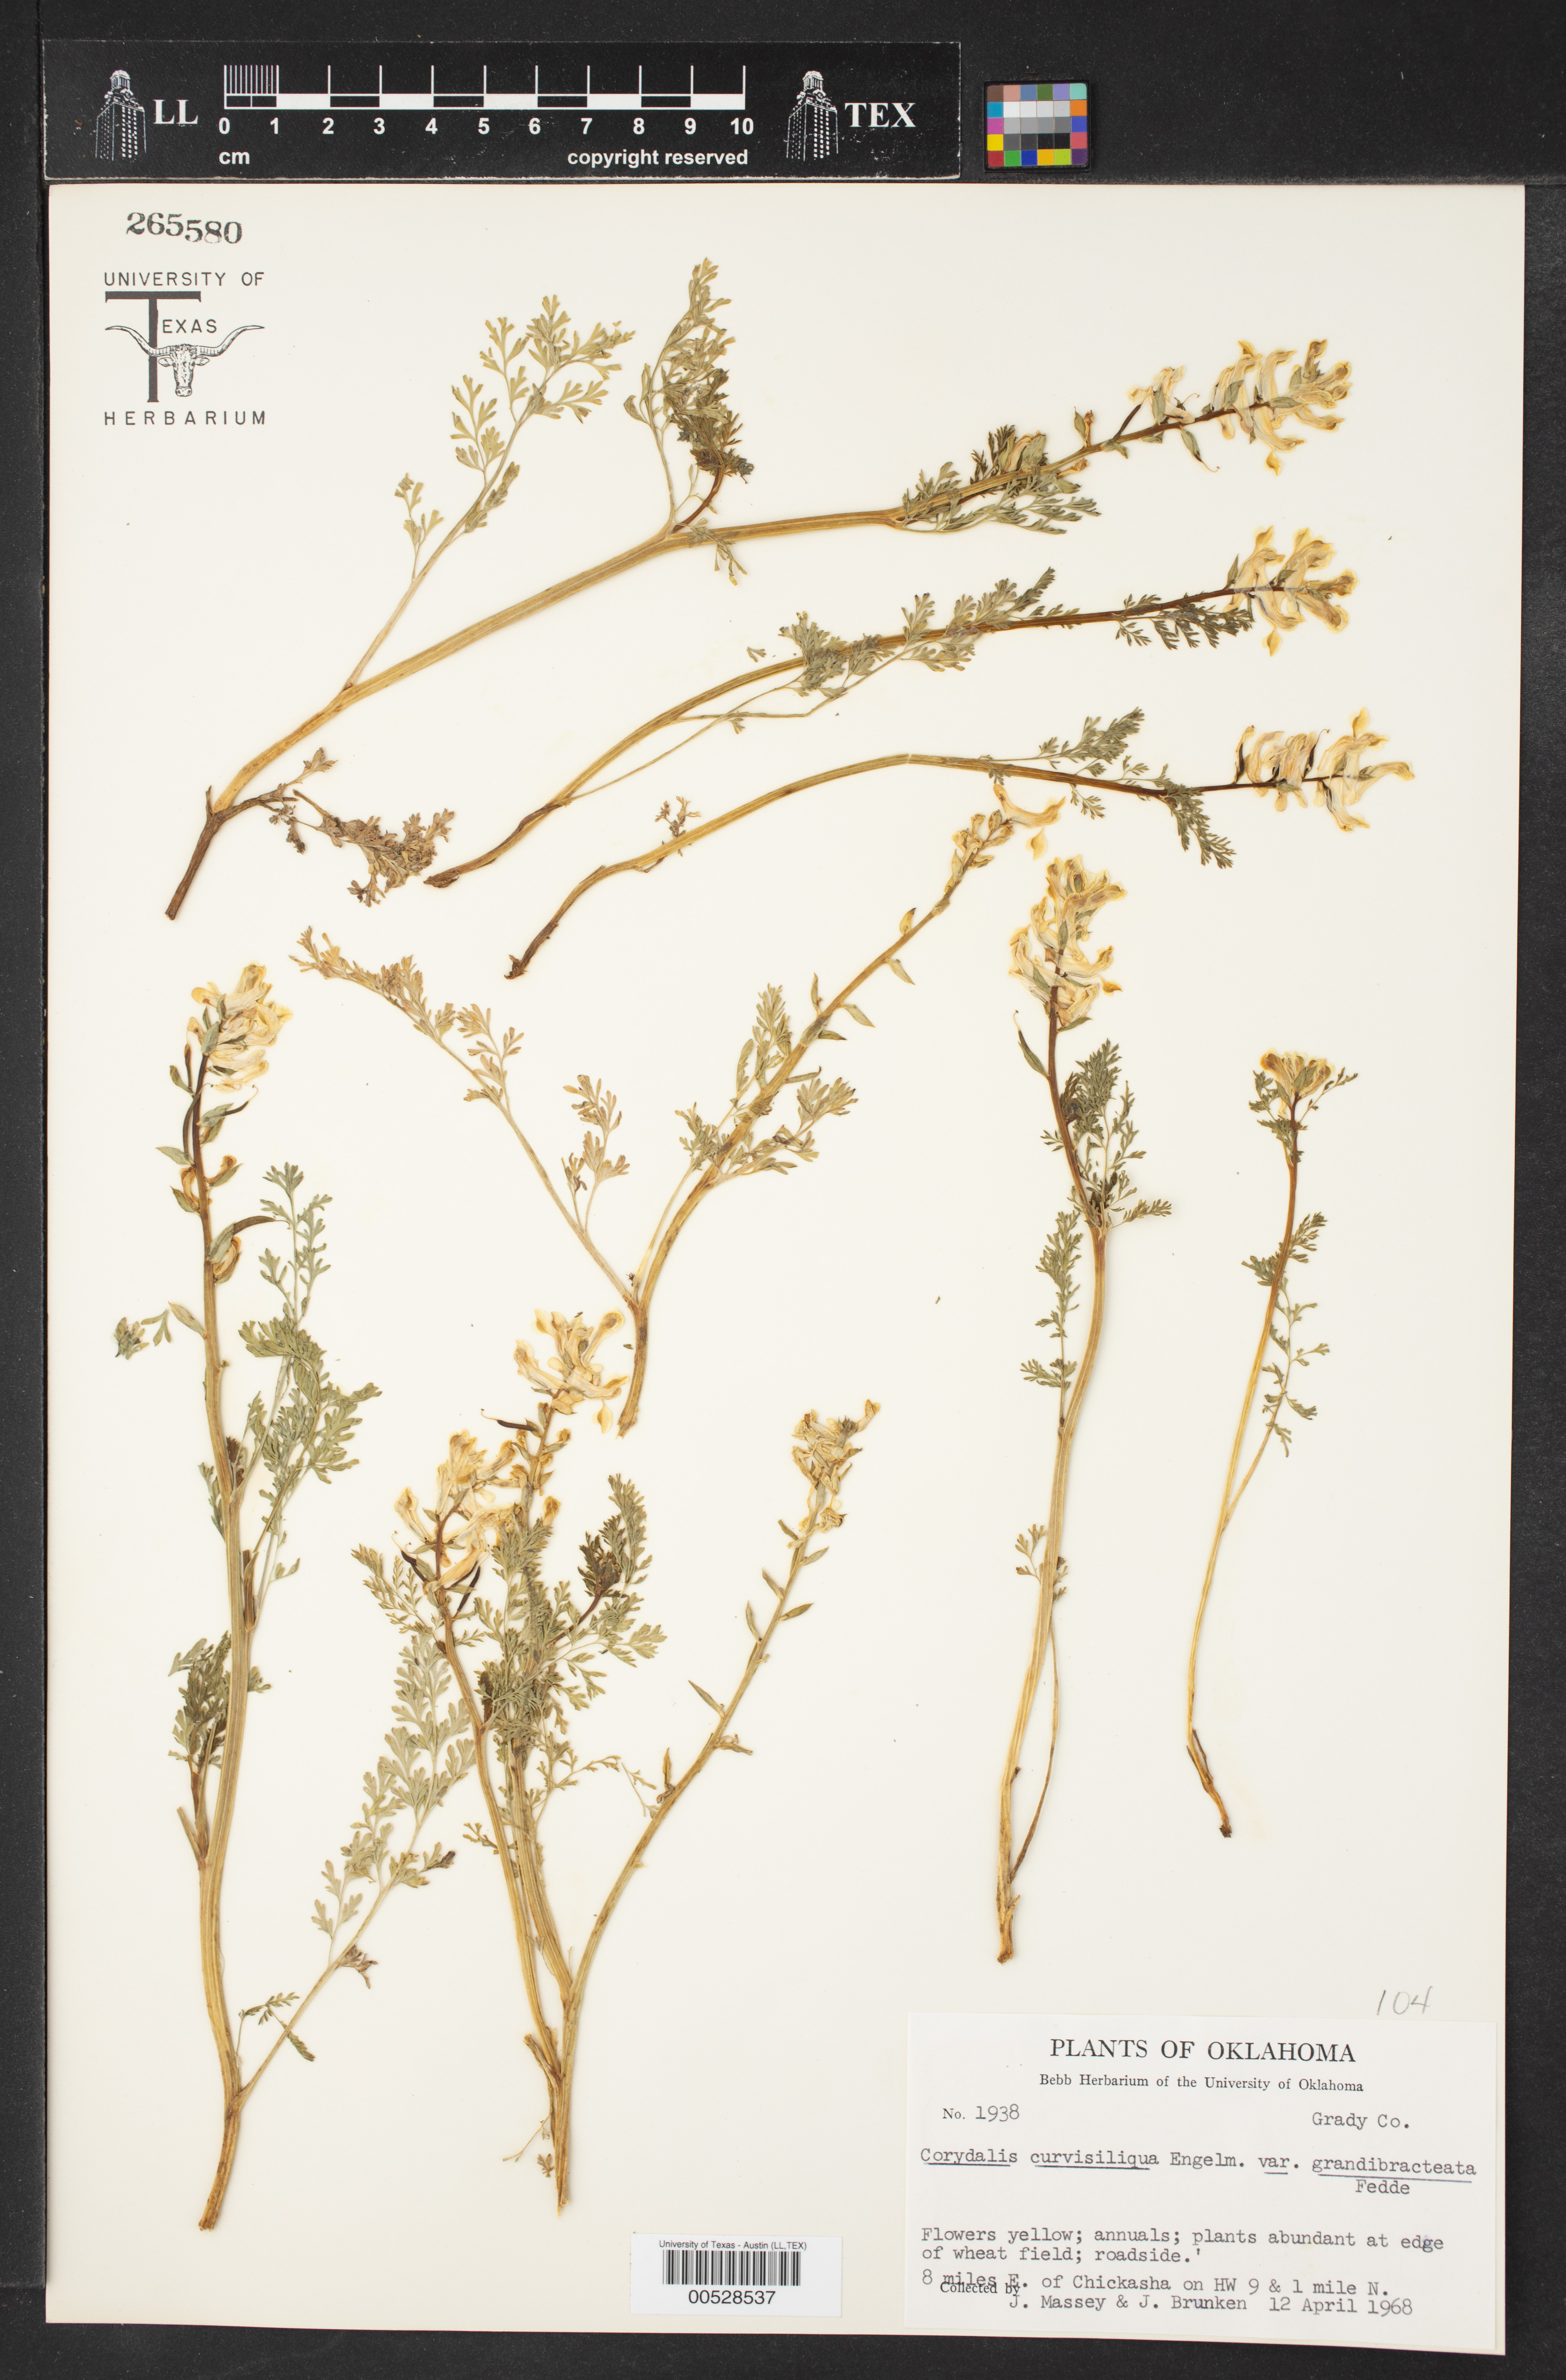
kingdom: Plantae
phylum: Tracheophyta
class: Magnoliopsida
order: Ranunculales
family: Papaveraceae
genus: Corydalis
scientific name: Corydalis curvisiliqua
